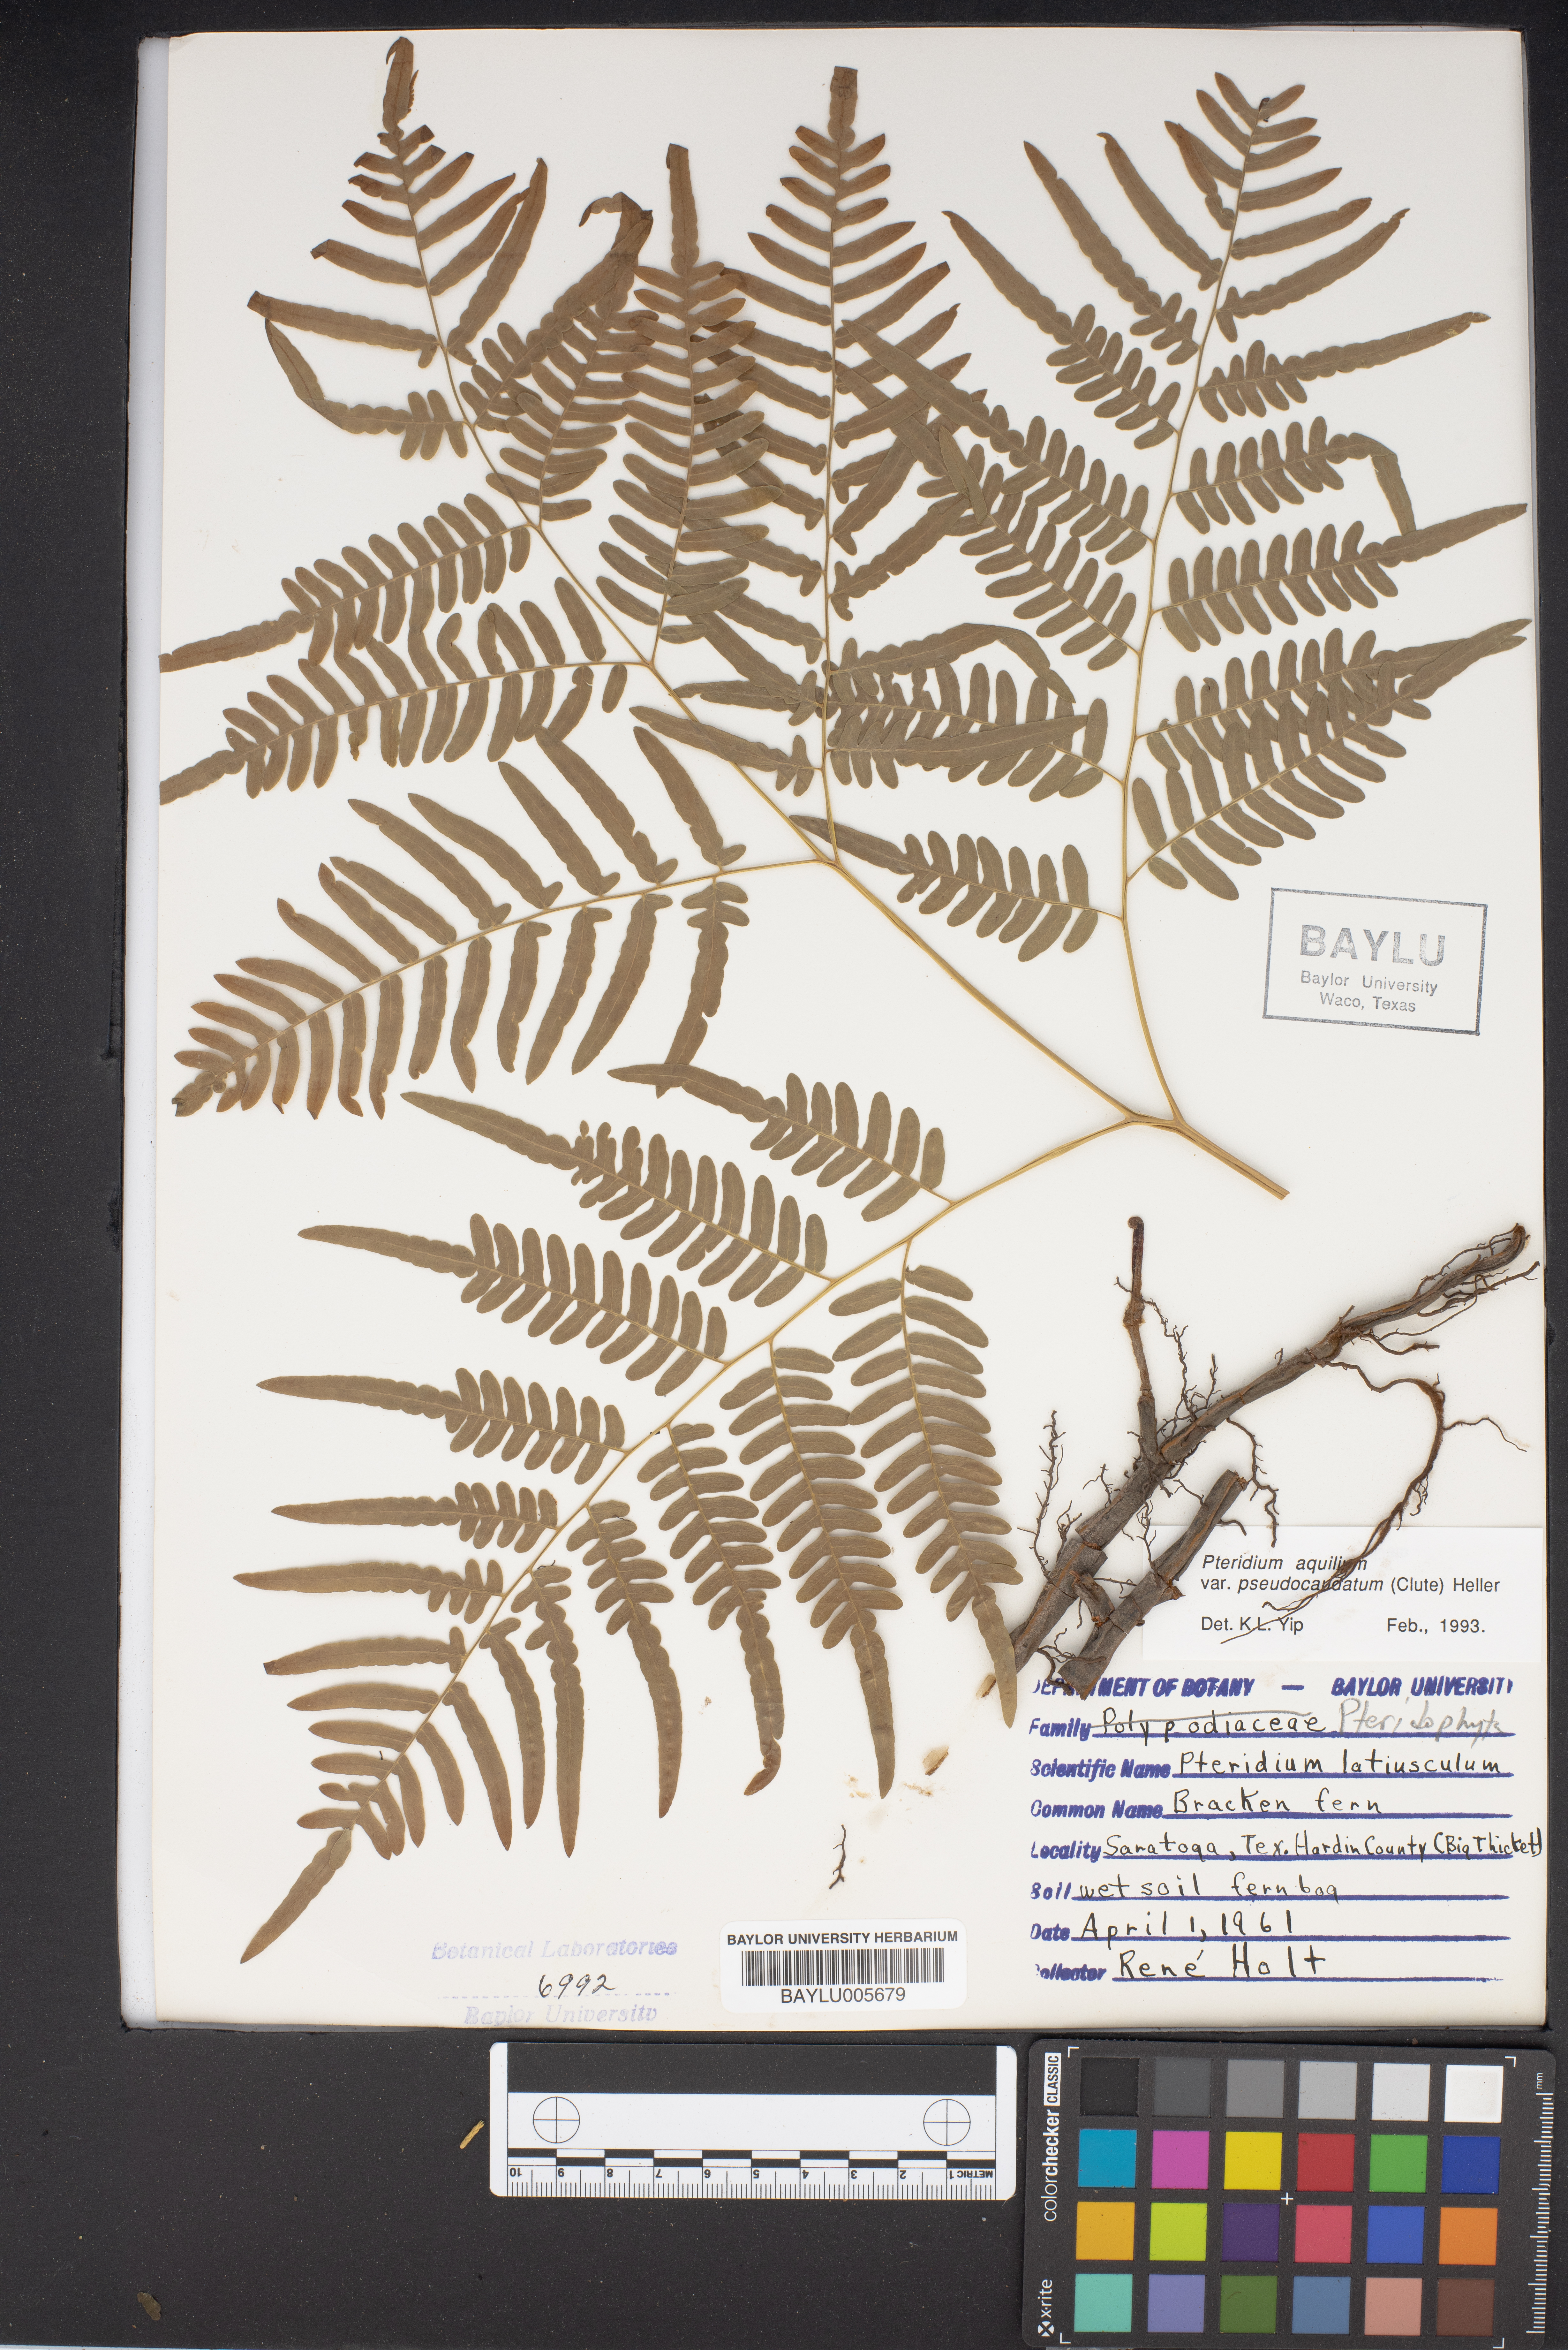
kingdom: Plantae
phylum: Tracheophyta
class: Polypodiopsida
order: Polypodiales
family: Dennstaedtiaceae
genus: Pteridium
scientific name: Pteridium aquilinum
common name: Bracken
